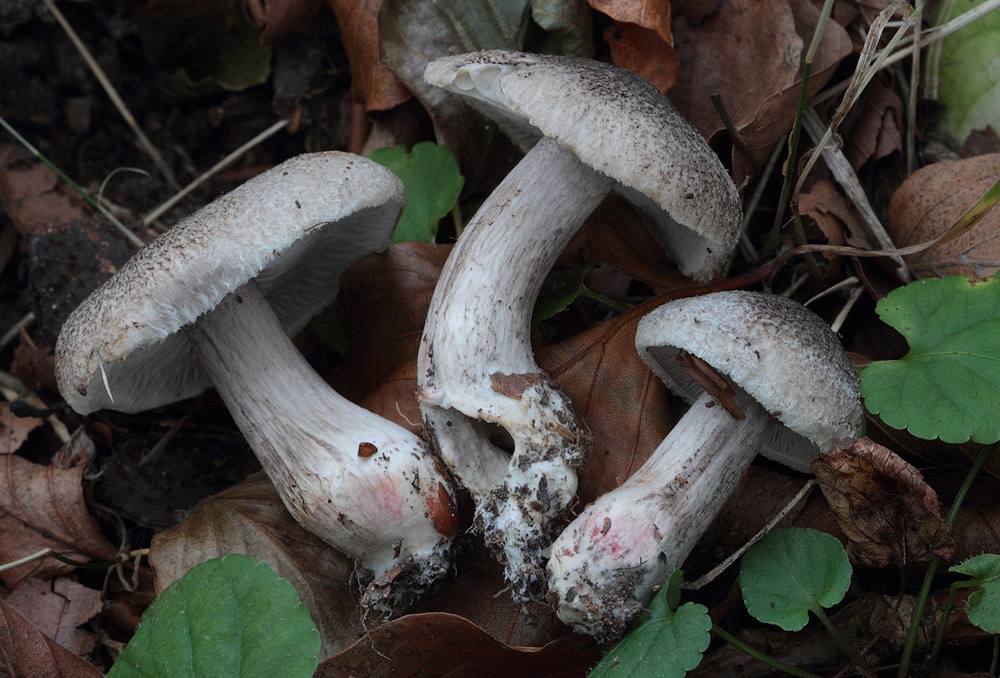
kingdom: Fungi
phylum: Basidiomycota
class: Agaricomycetes
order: Agaricales
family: Tricholomataceae
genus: Tricholoma
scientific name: Tricholoma atrosquamosum
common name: sortskællet ridderhat
